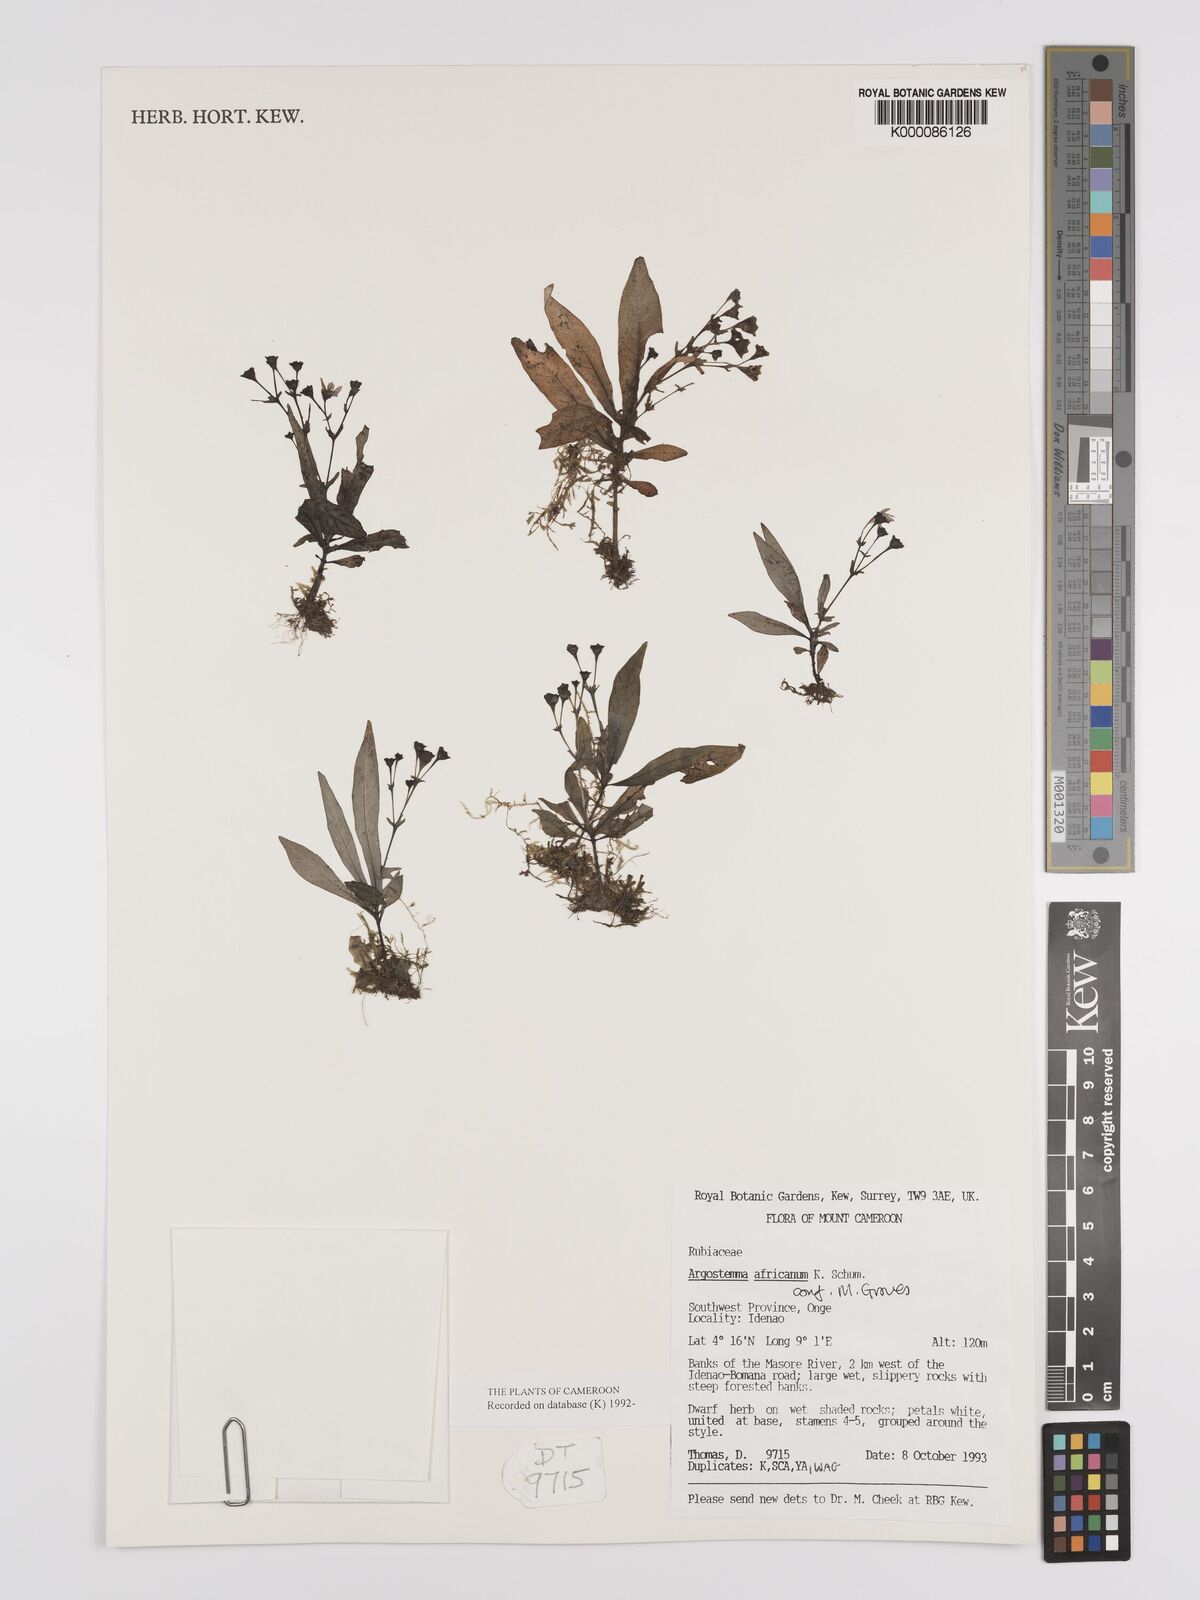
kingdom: Plantae
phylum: Tracheophyta
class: Magnoliopsida
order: Gentianales
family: Rubiaceae
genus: Argostemma
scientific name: Argostemma africanum
